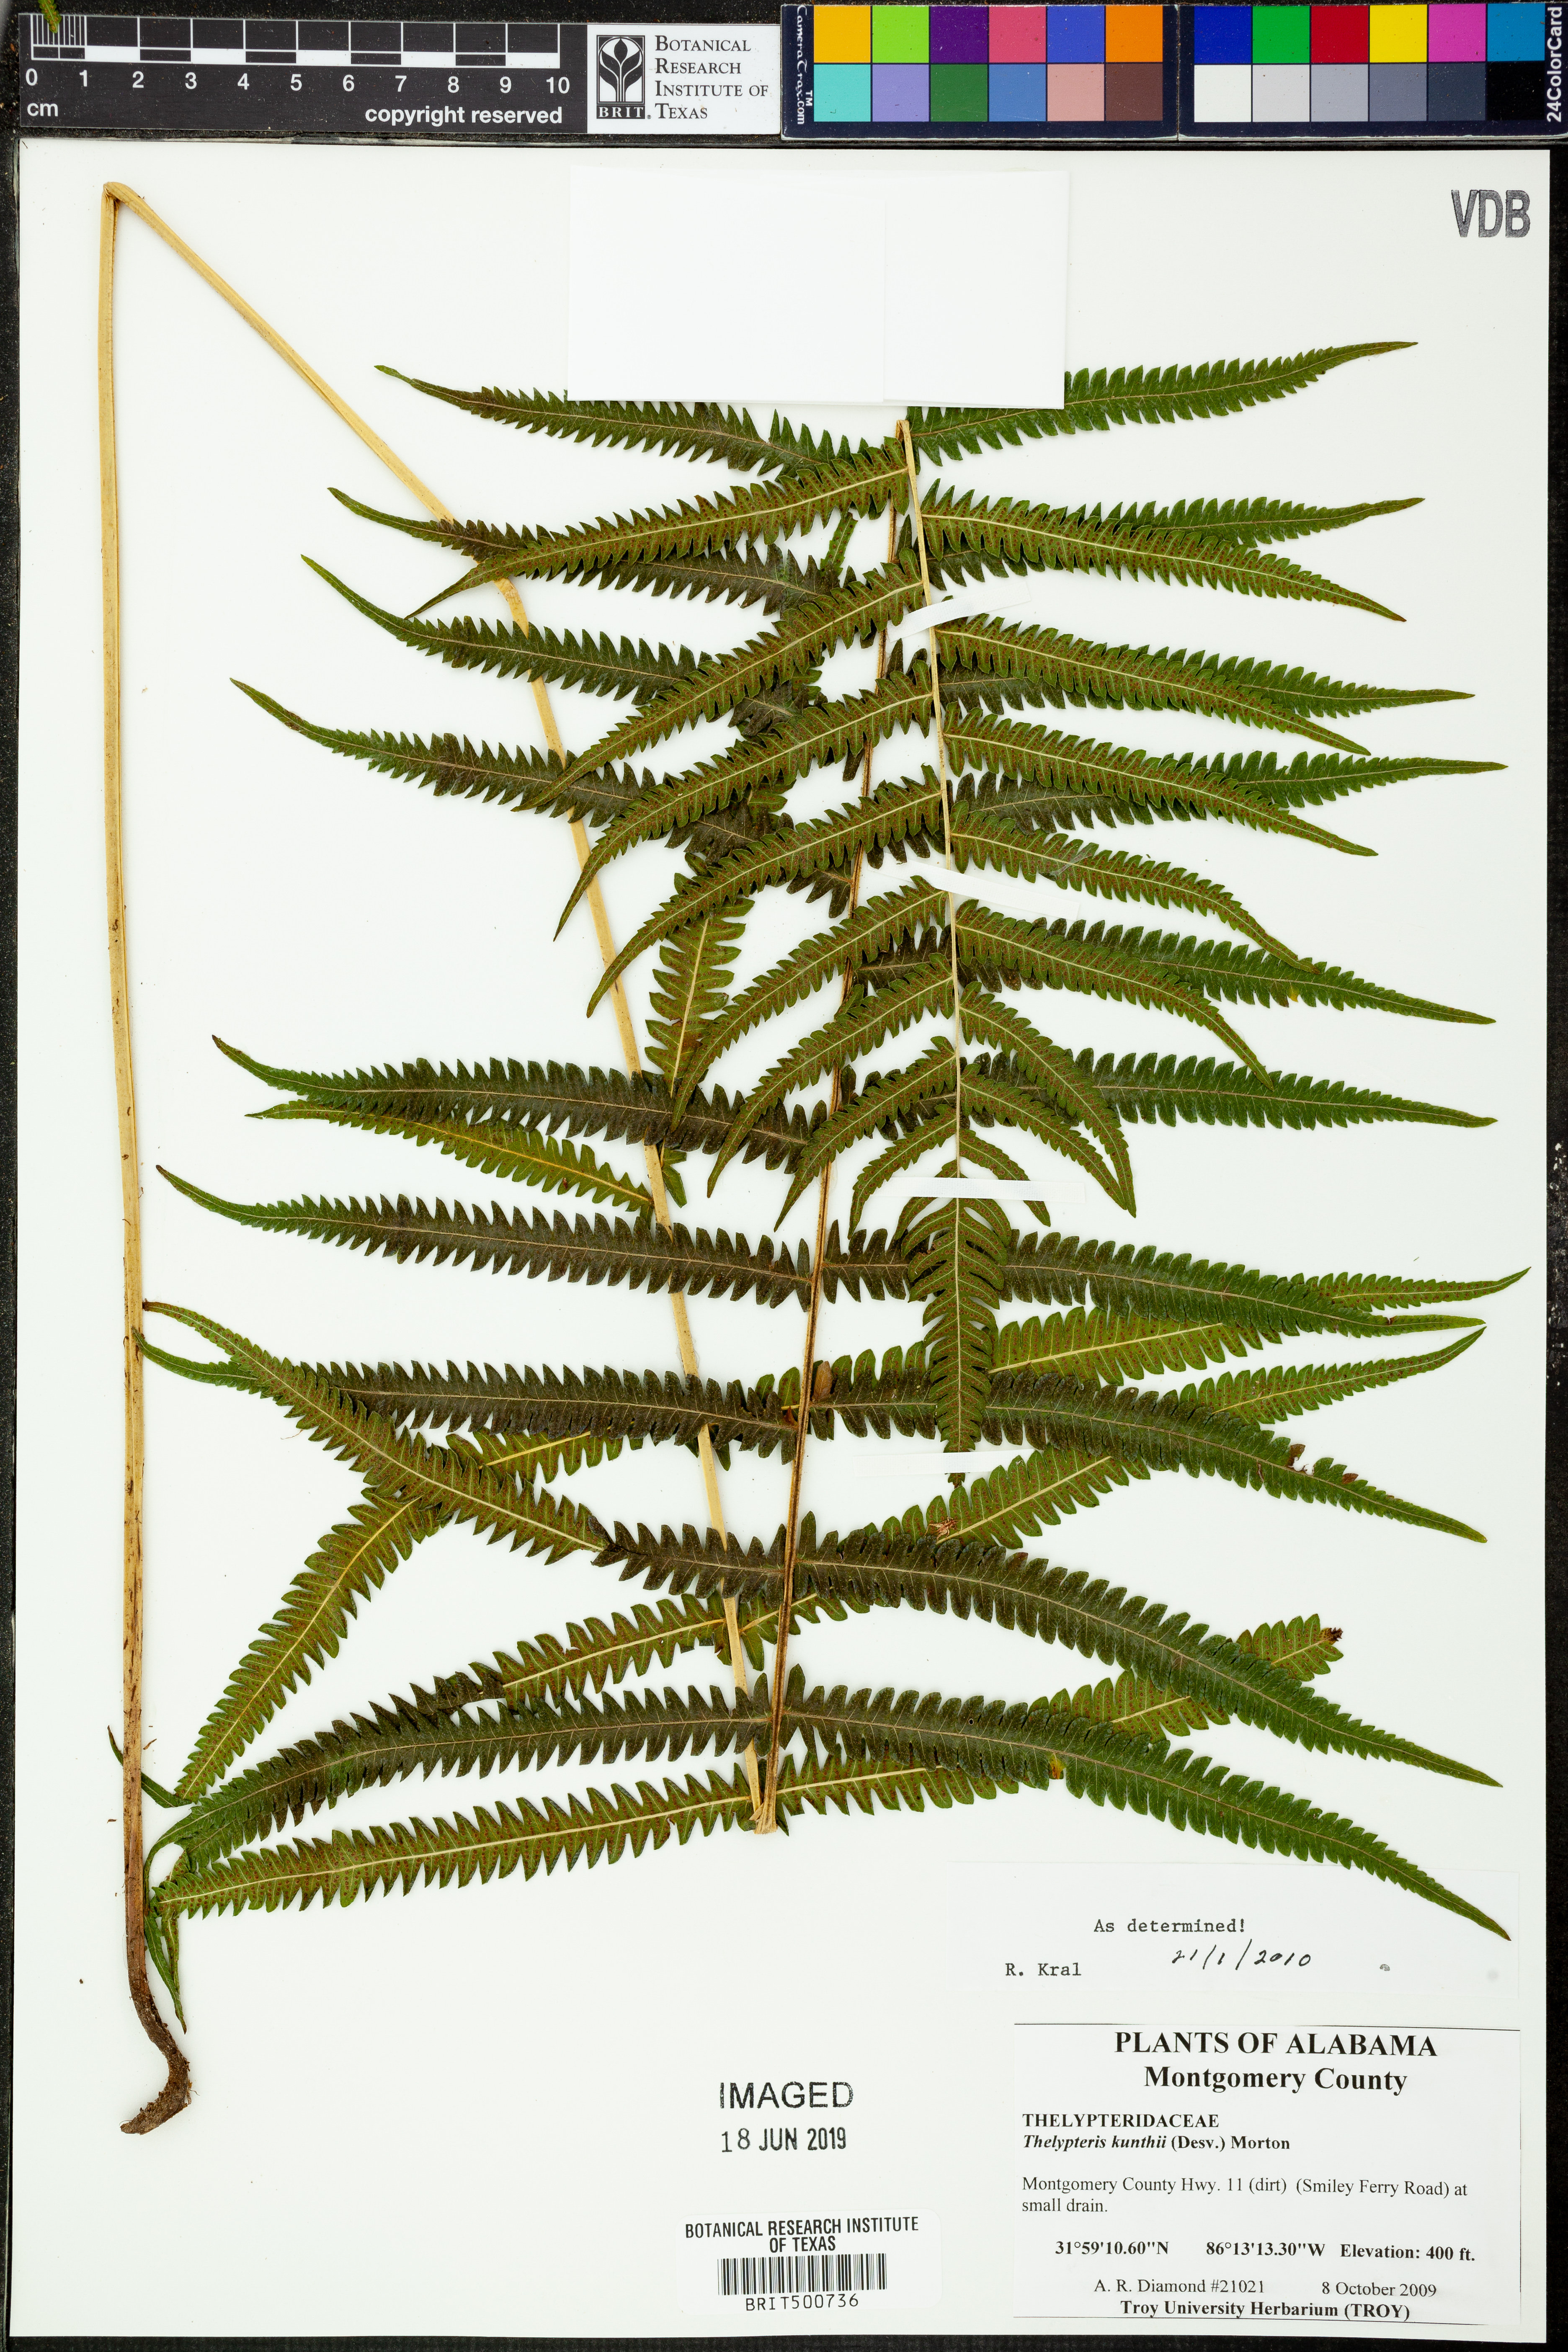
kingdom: Plantae
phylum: Tracheophyta
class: Polypodiopsida
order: Polypodiales
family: Thelypteridaceae
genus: Pelazoneuron
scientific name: Pelazoneuron kunthii
